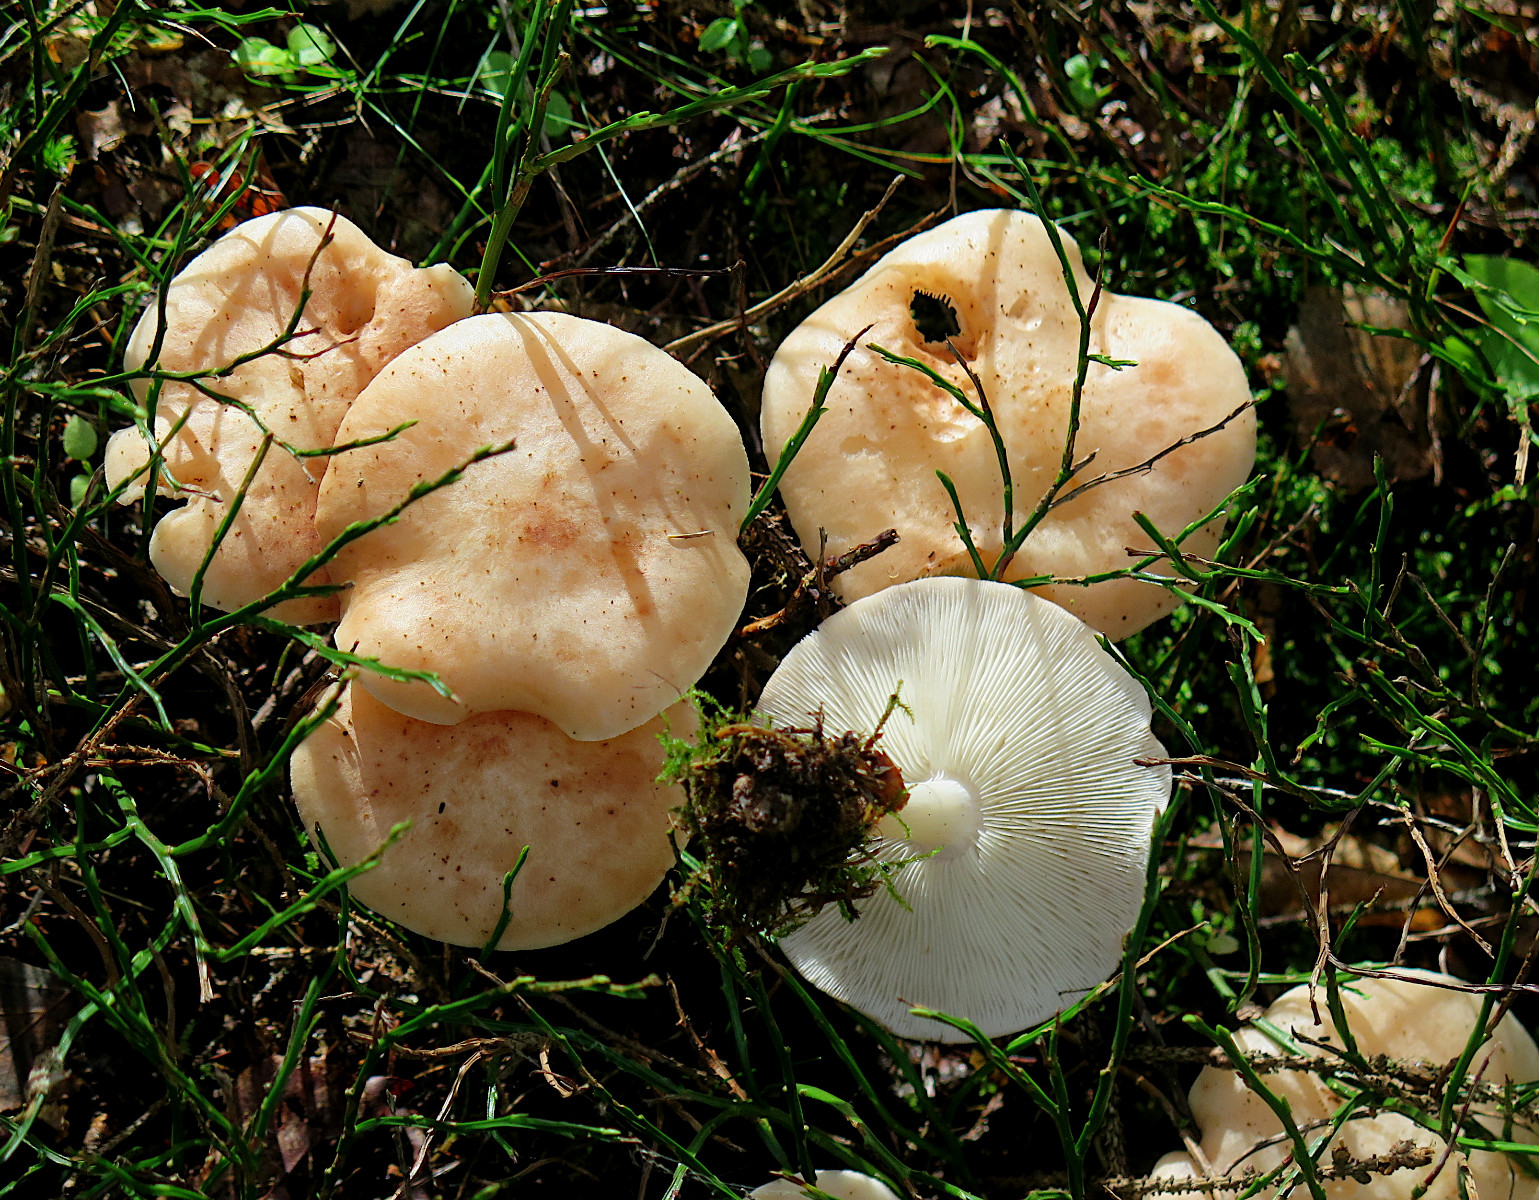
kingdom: Fungi
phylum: Basidiomycota
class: Agaricomycetes
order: Agaricales
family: Omphalotaceae
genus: Rhodocollybia
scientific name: Rhodocollybia maculata
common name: plettet fladhat
